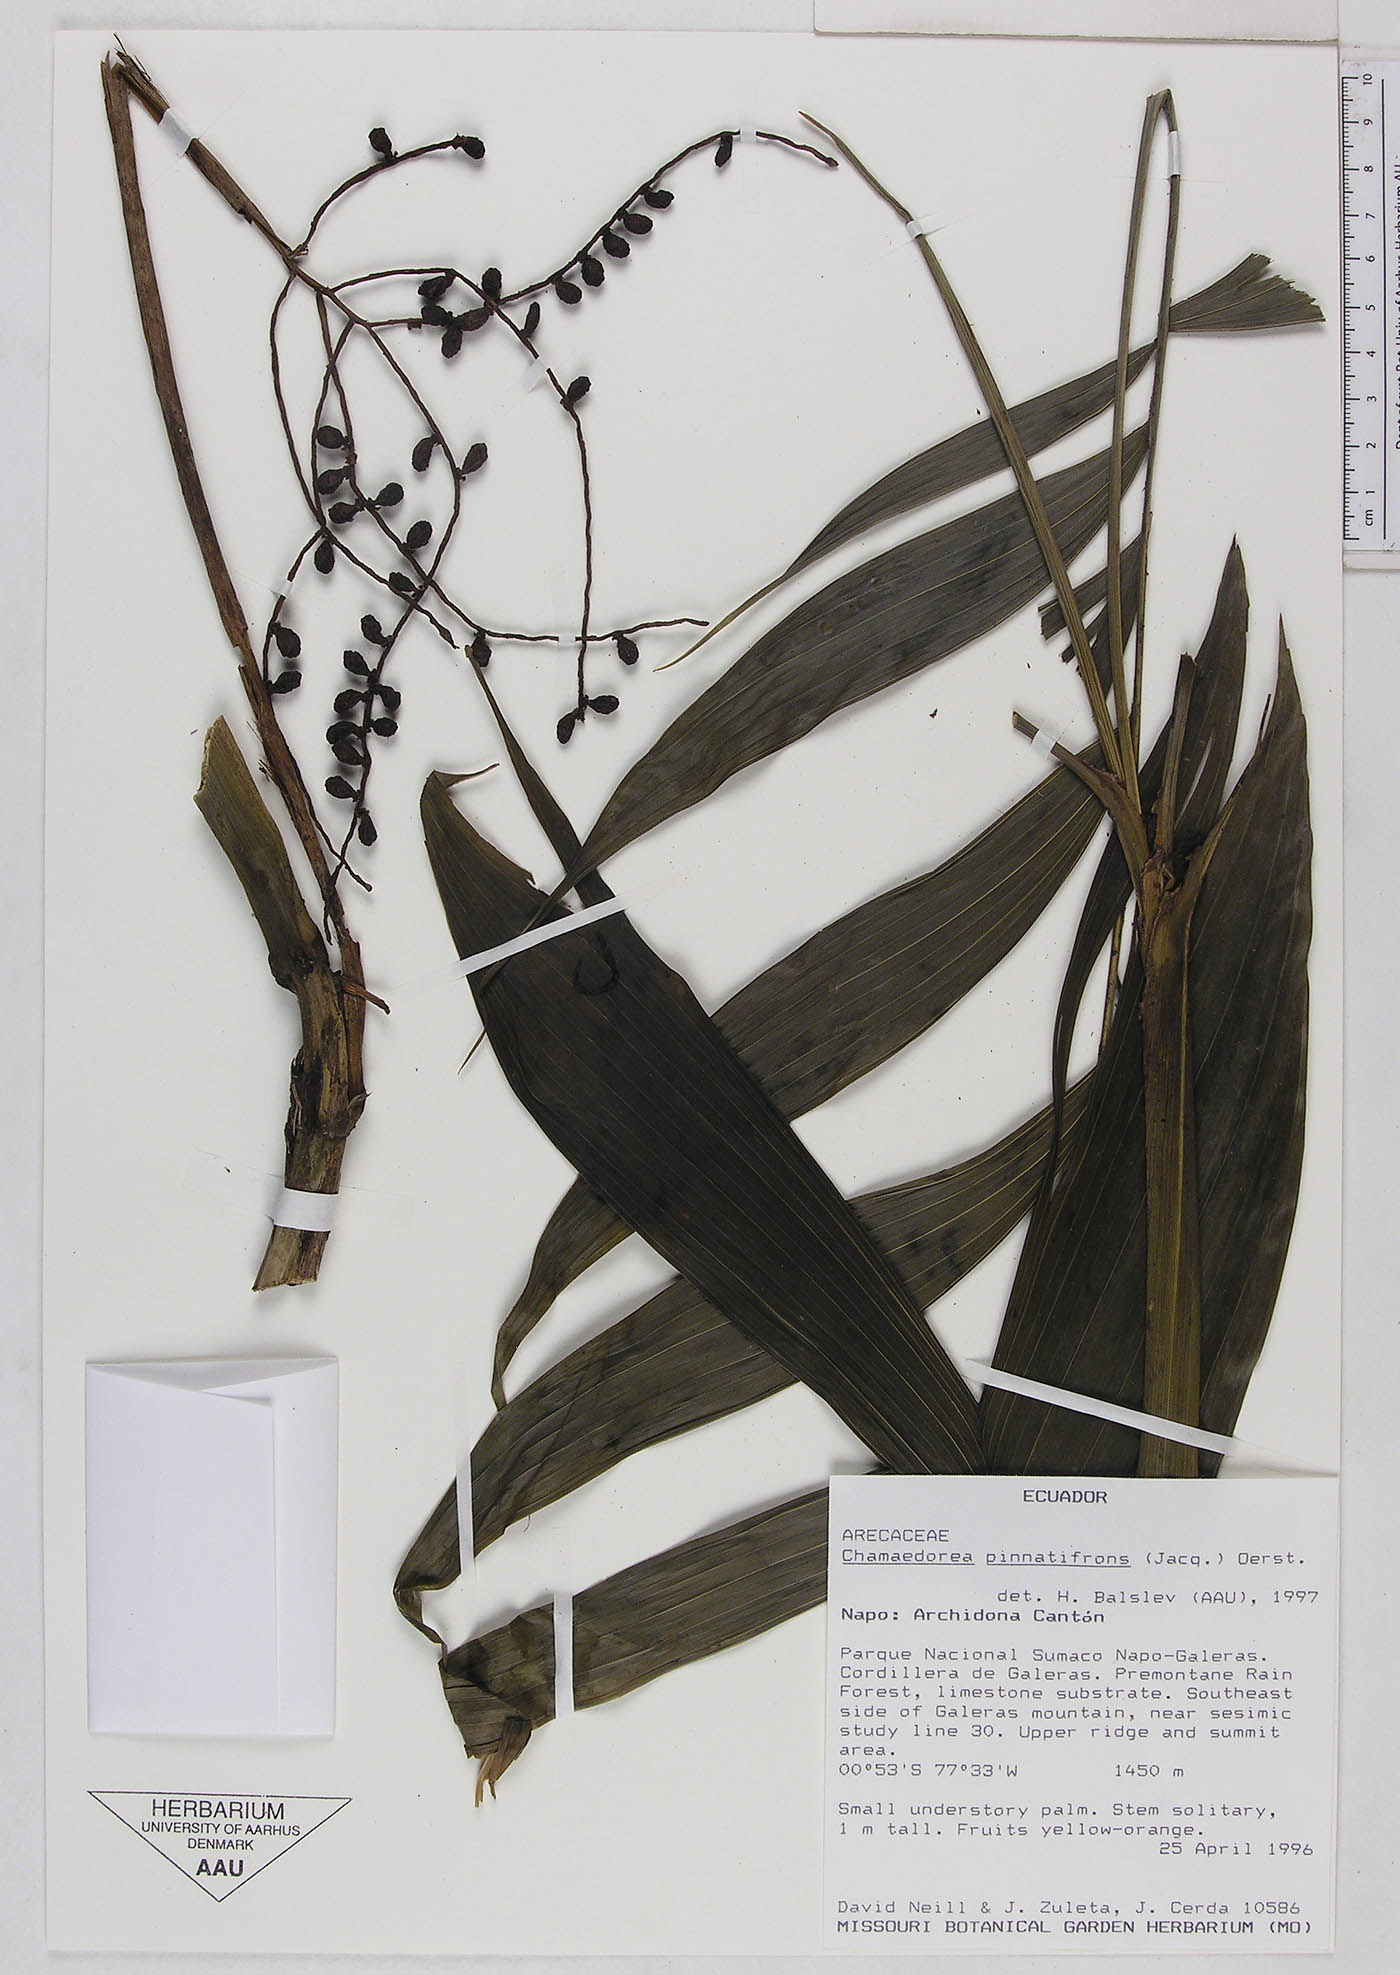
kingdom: Plantae
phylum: Tracheophyta
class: Liliopsida
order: Arecales
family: Arecaceae
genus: Chamaedorea
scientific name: Chamaedorea pinnatifrons
